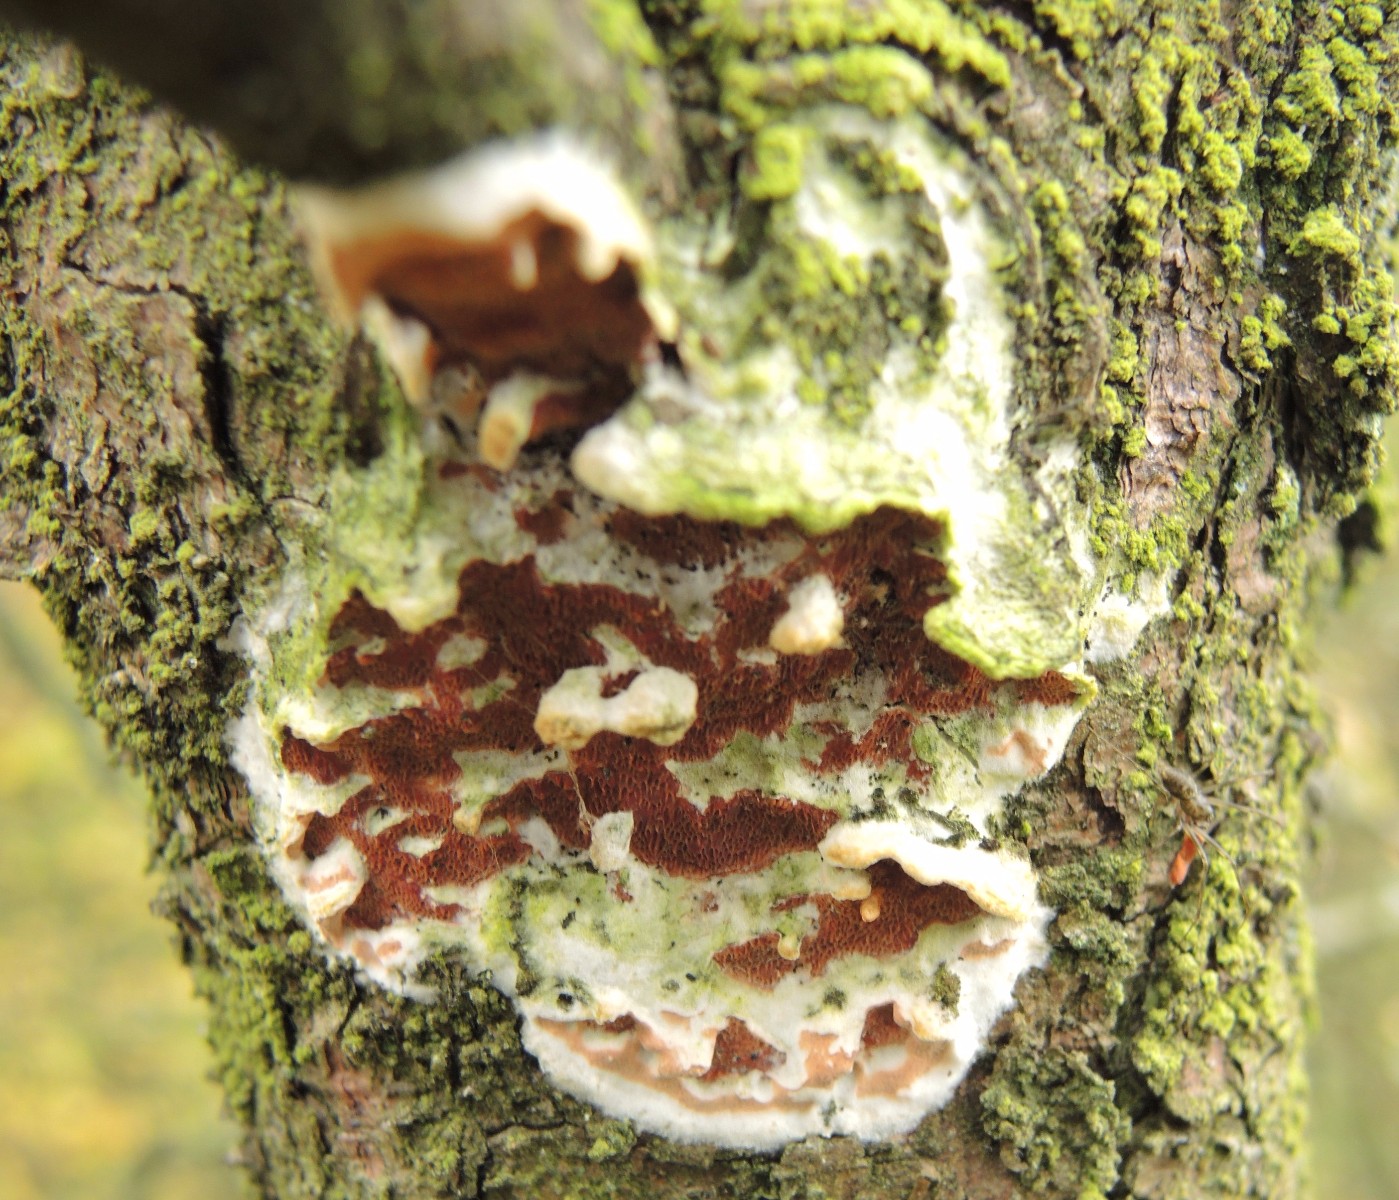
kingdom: Fungi
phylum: Basidiomycota
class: Agaricomycetes
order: Polyporales
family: Irpicaceae
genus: Meruliopsis
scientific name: Meruliopsis taxicola
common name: purpurbrun foldporesvamp
